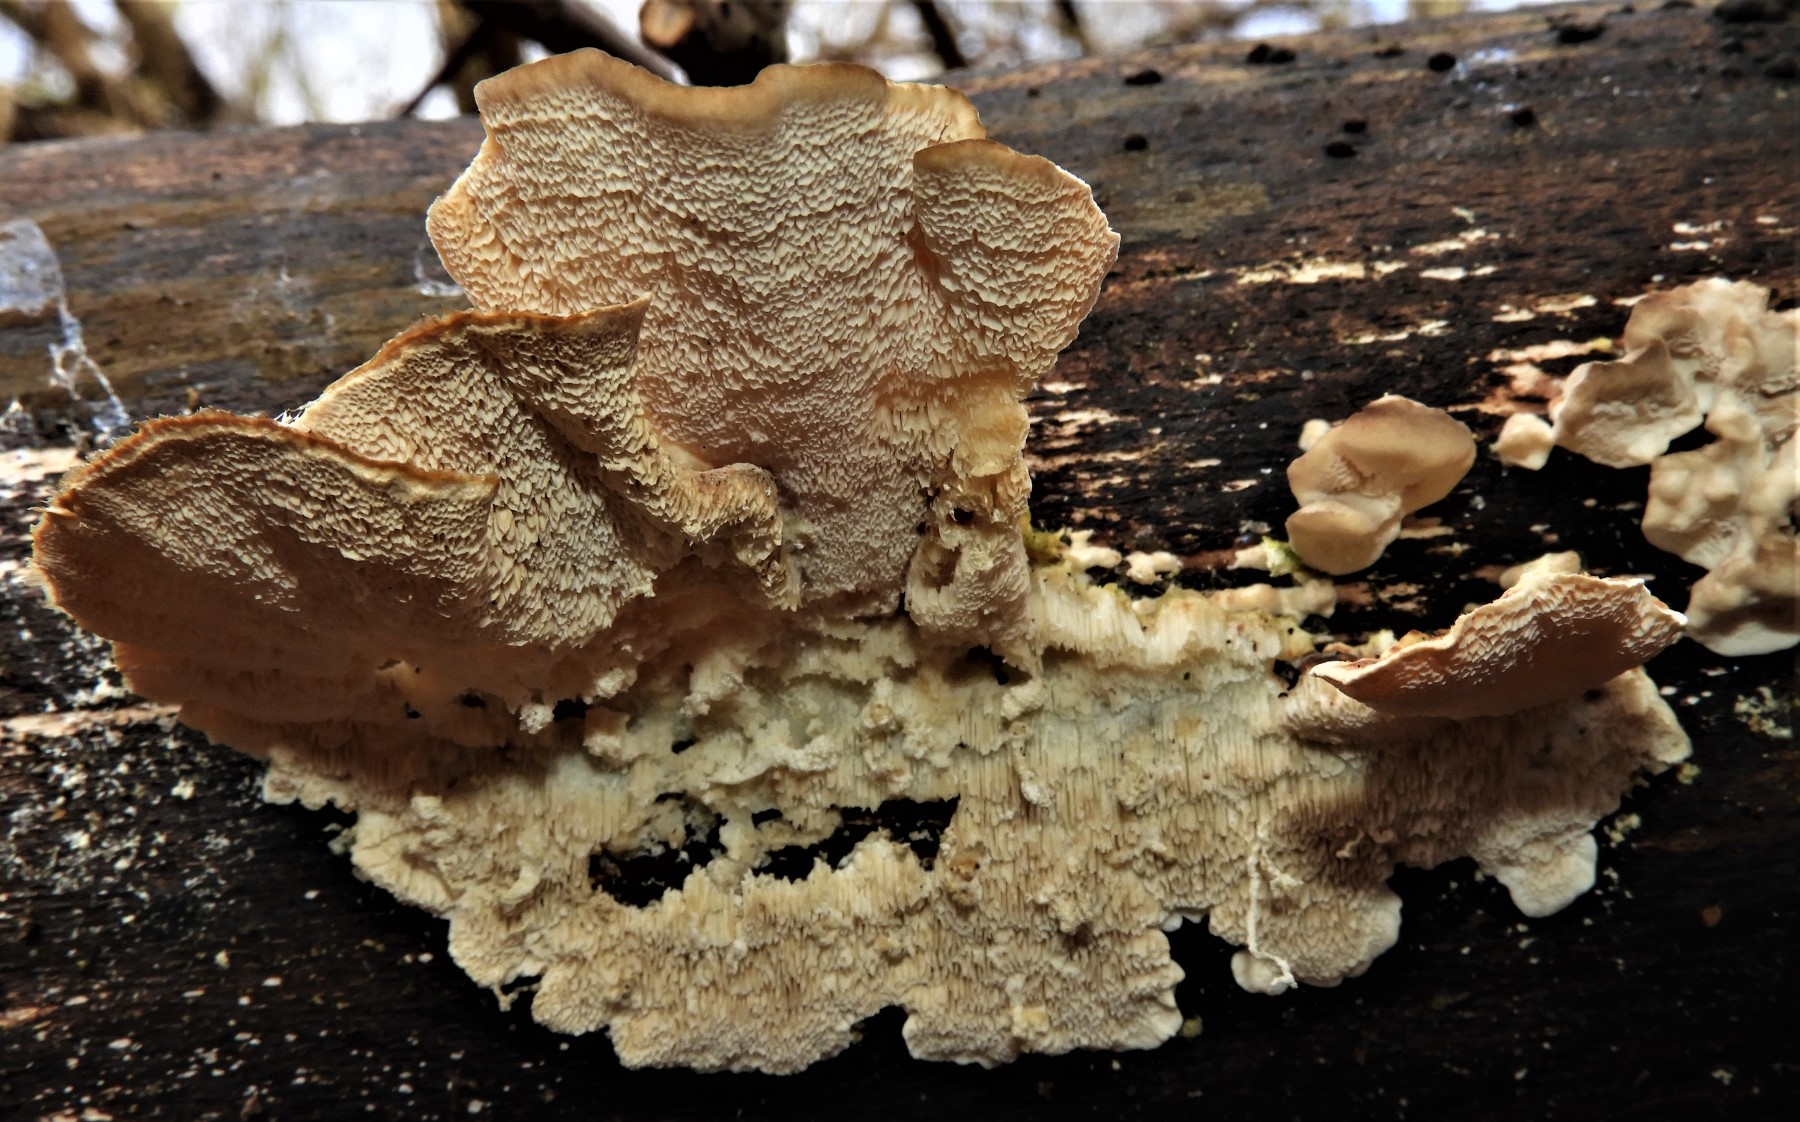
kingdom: Fungi
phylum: Basidiomycota
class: Agaricomycetes
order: Polyporales
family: Polyporaceae
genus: Trametes
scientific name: Trametes versicolor
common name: broget læderporesvamp
